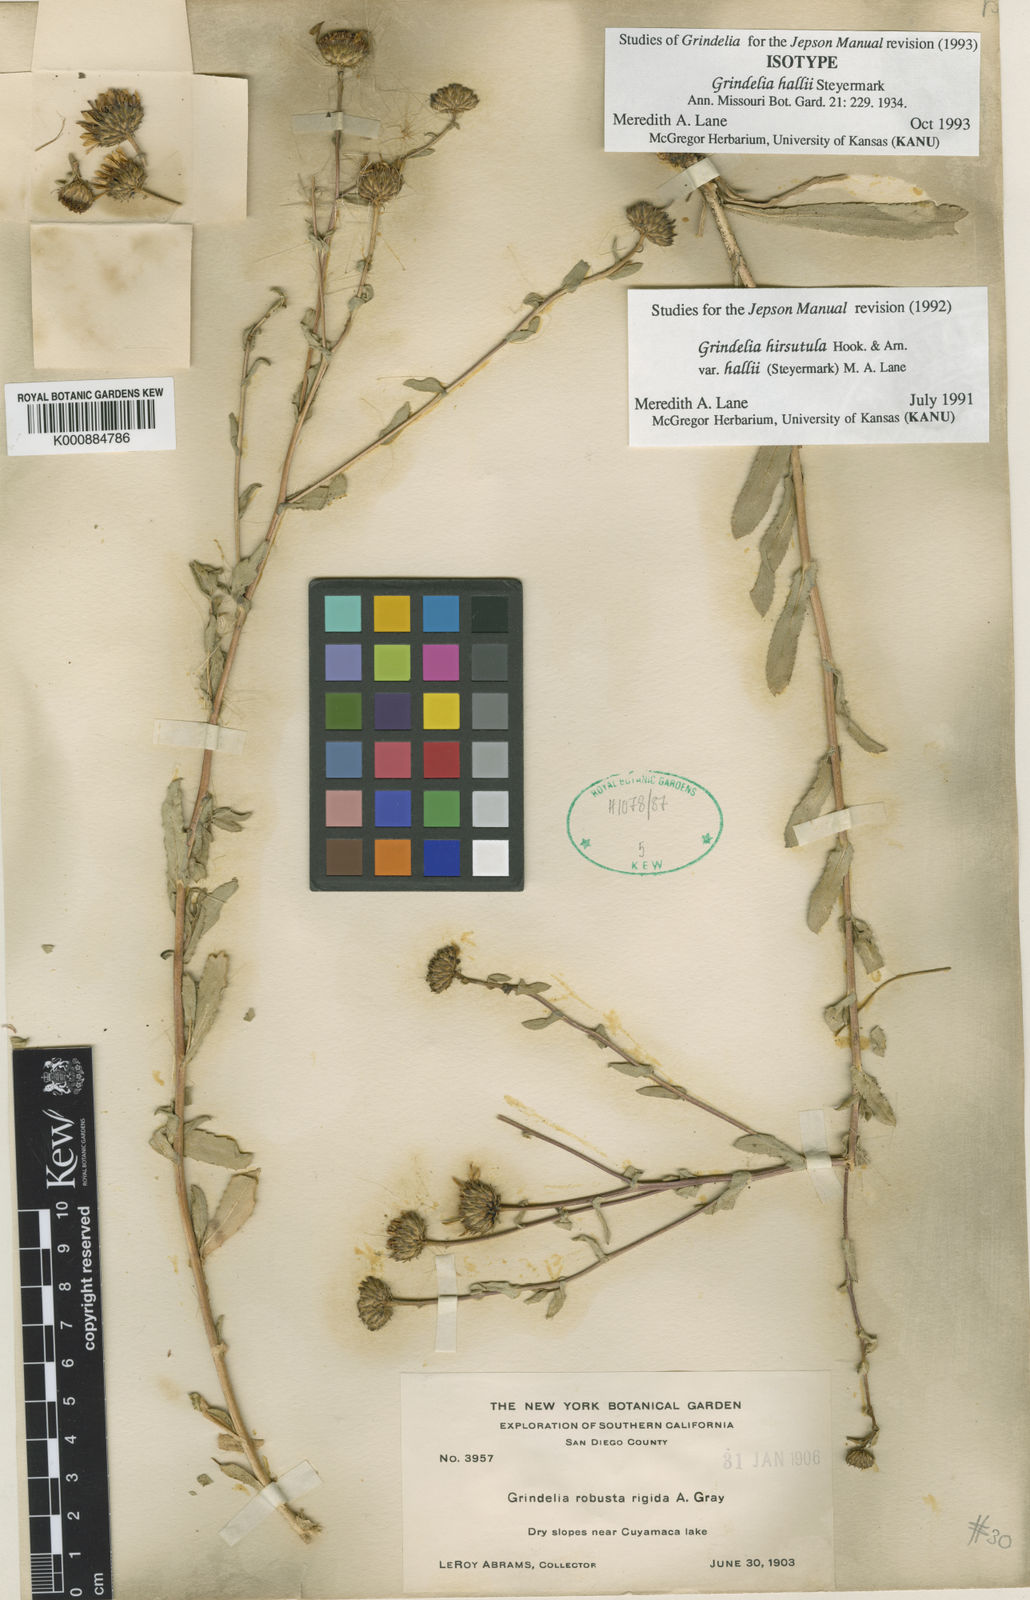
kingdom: Plantae
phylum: Tracheophyta
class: Magnoliopsida
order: Asterales
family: Asteraceae
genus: Grindelia
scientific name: Grindelia hirsutula
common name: Hairy gumweed
